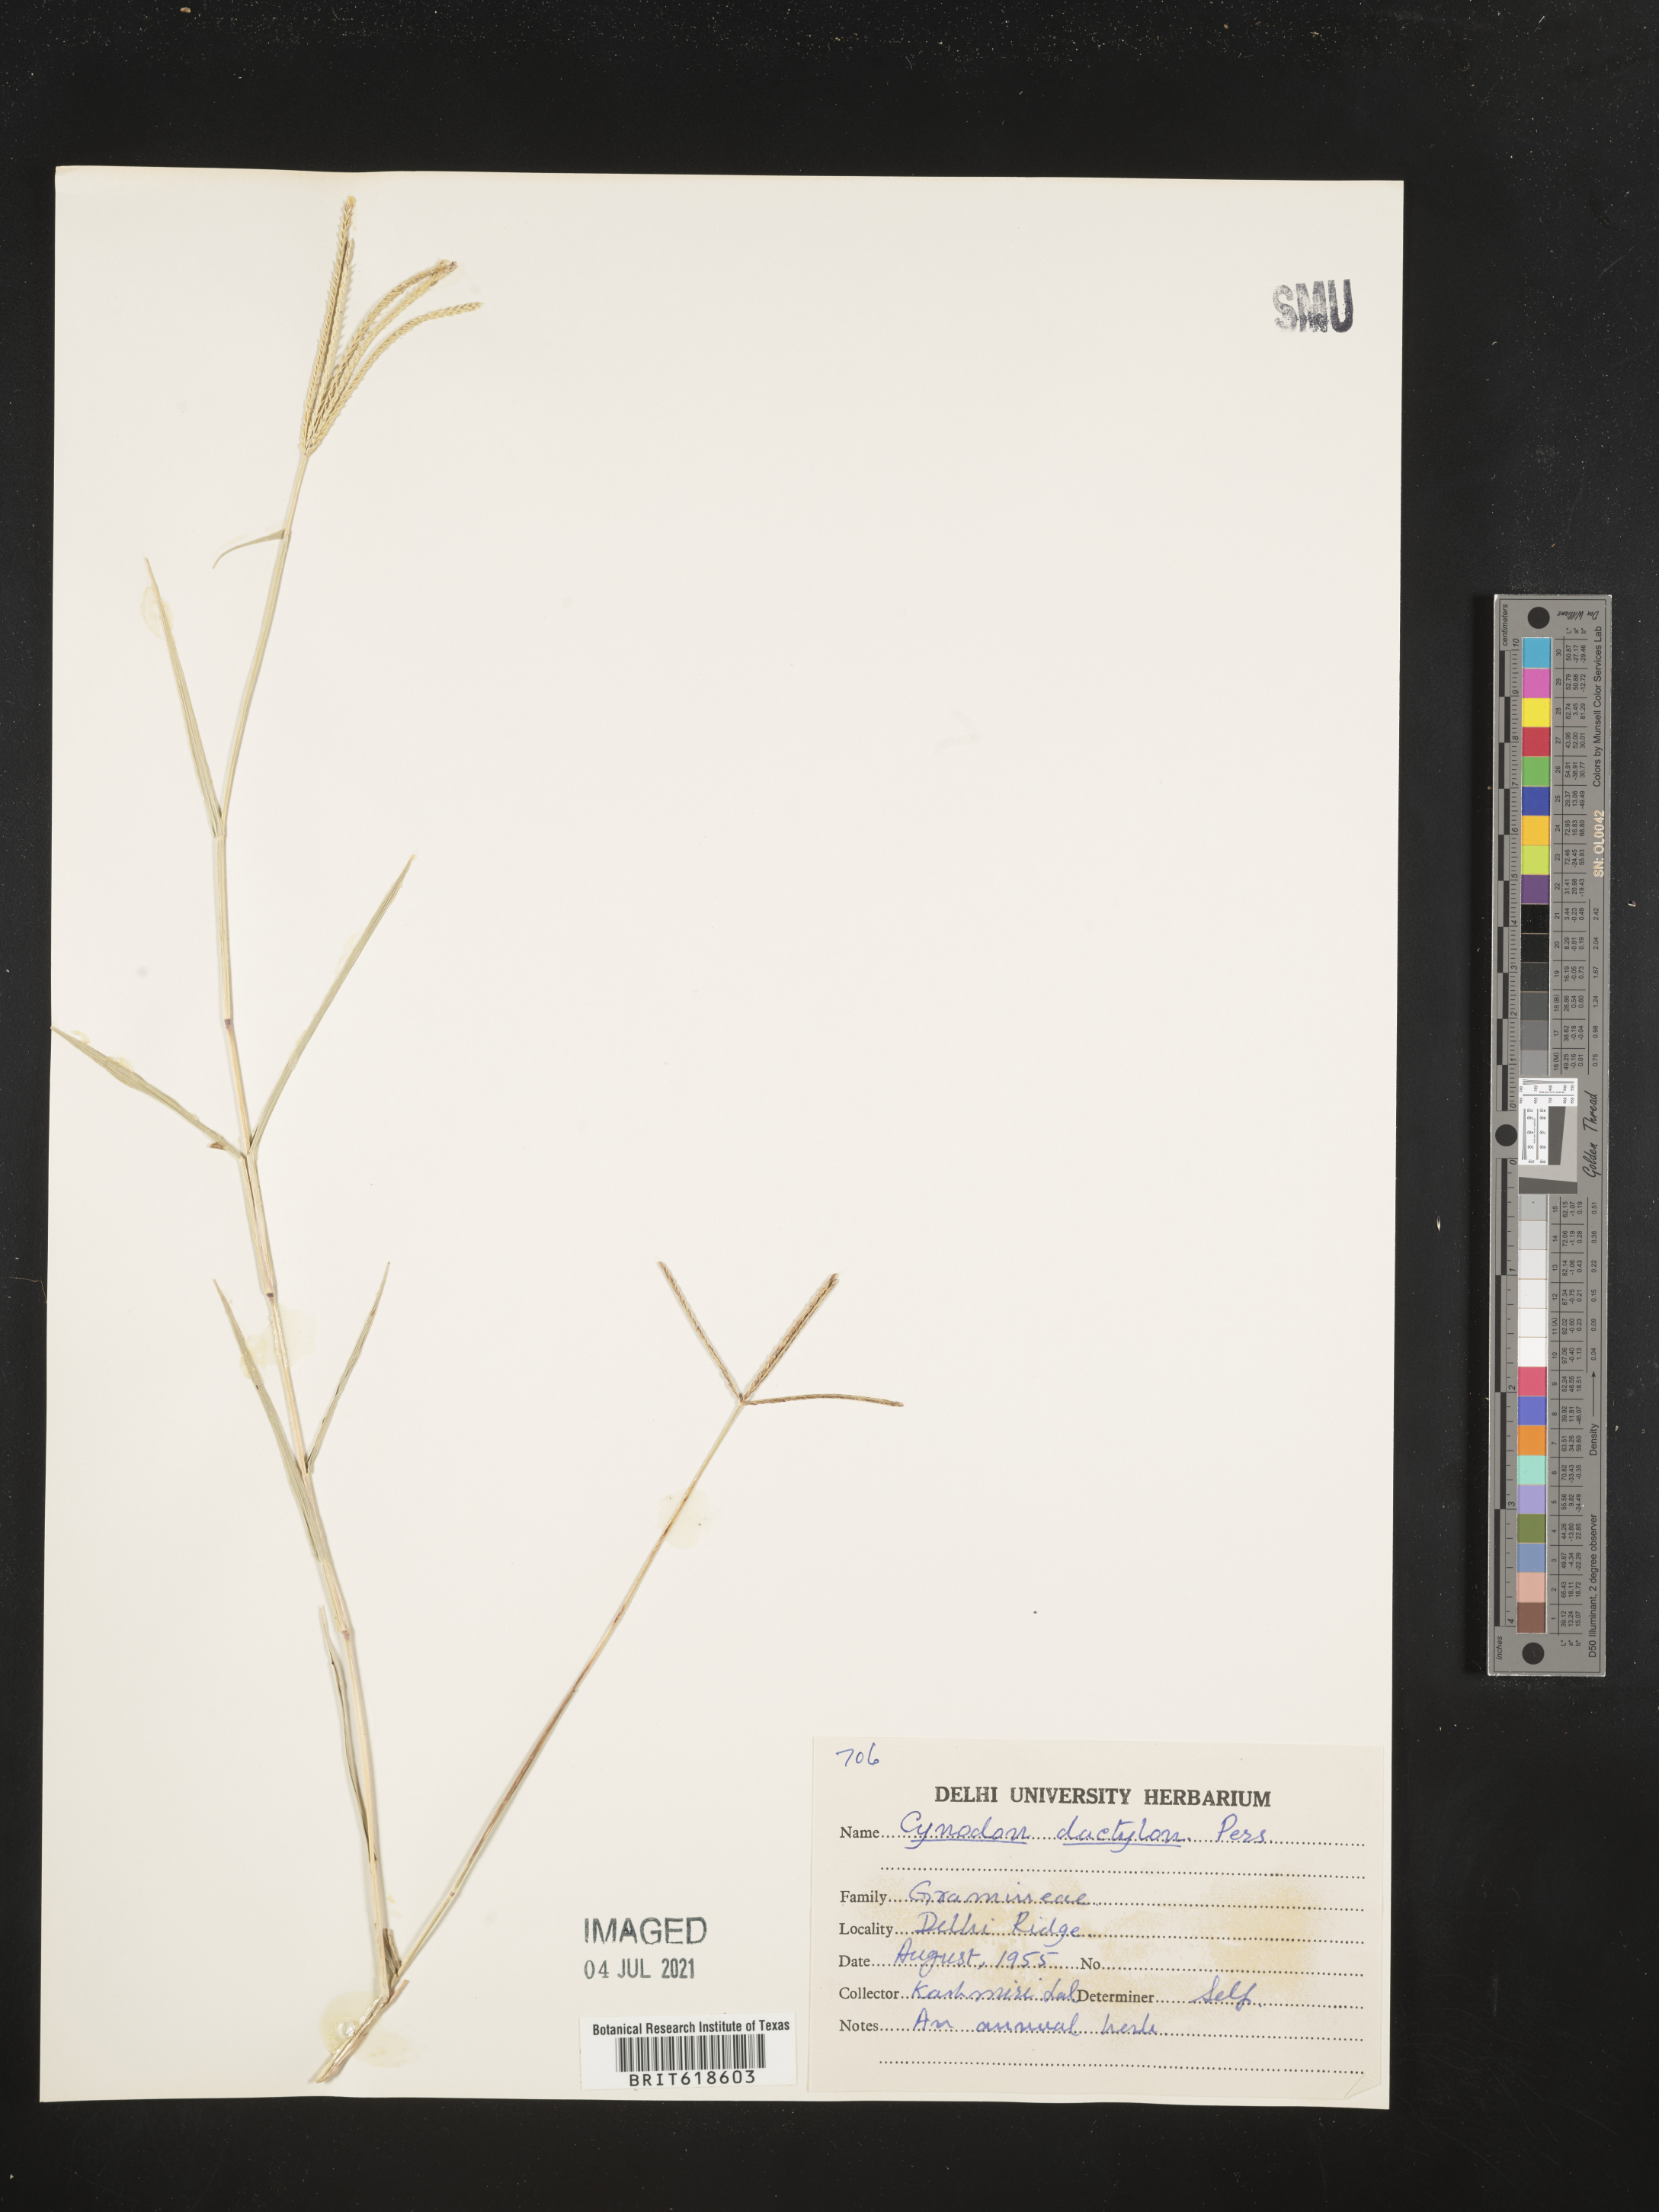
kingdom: Plantae
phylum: Tracheophyta
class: Liliopsida
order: Poales
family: Poaceae
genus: Cynodon
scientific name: Cynodon dactylon
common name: Bermuda grass
